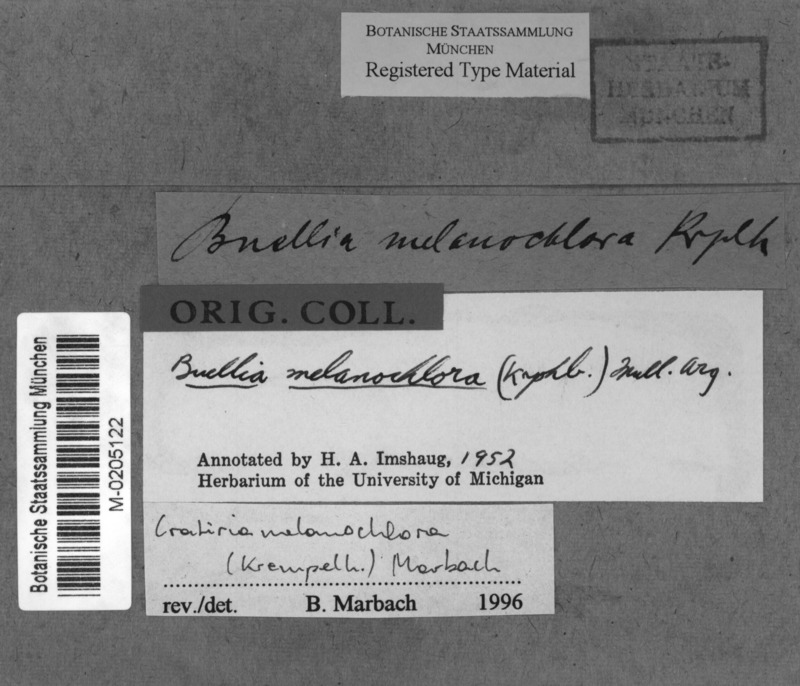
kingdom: Fungi
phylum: Ascomycota
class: Lecanoromycetes
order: Caliciales
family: Caliciaceae
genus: Cratiria
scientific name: Cratiria melanochlora
